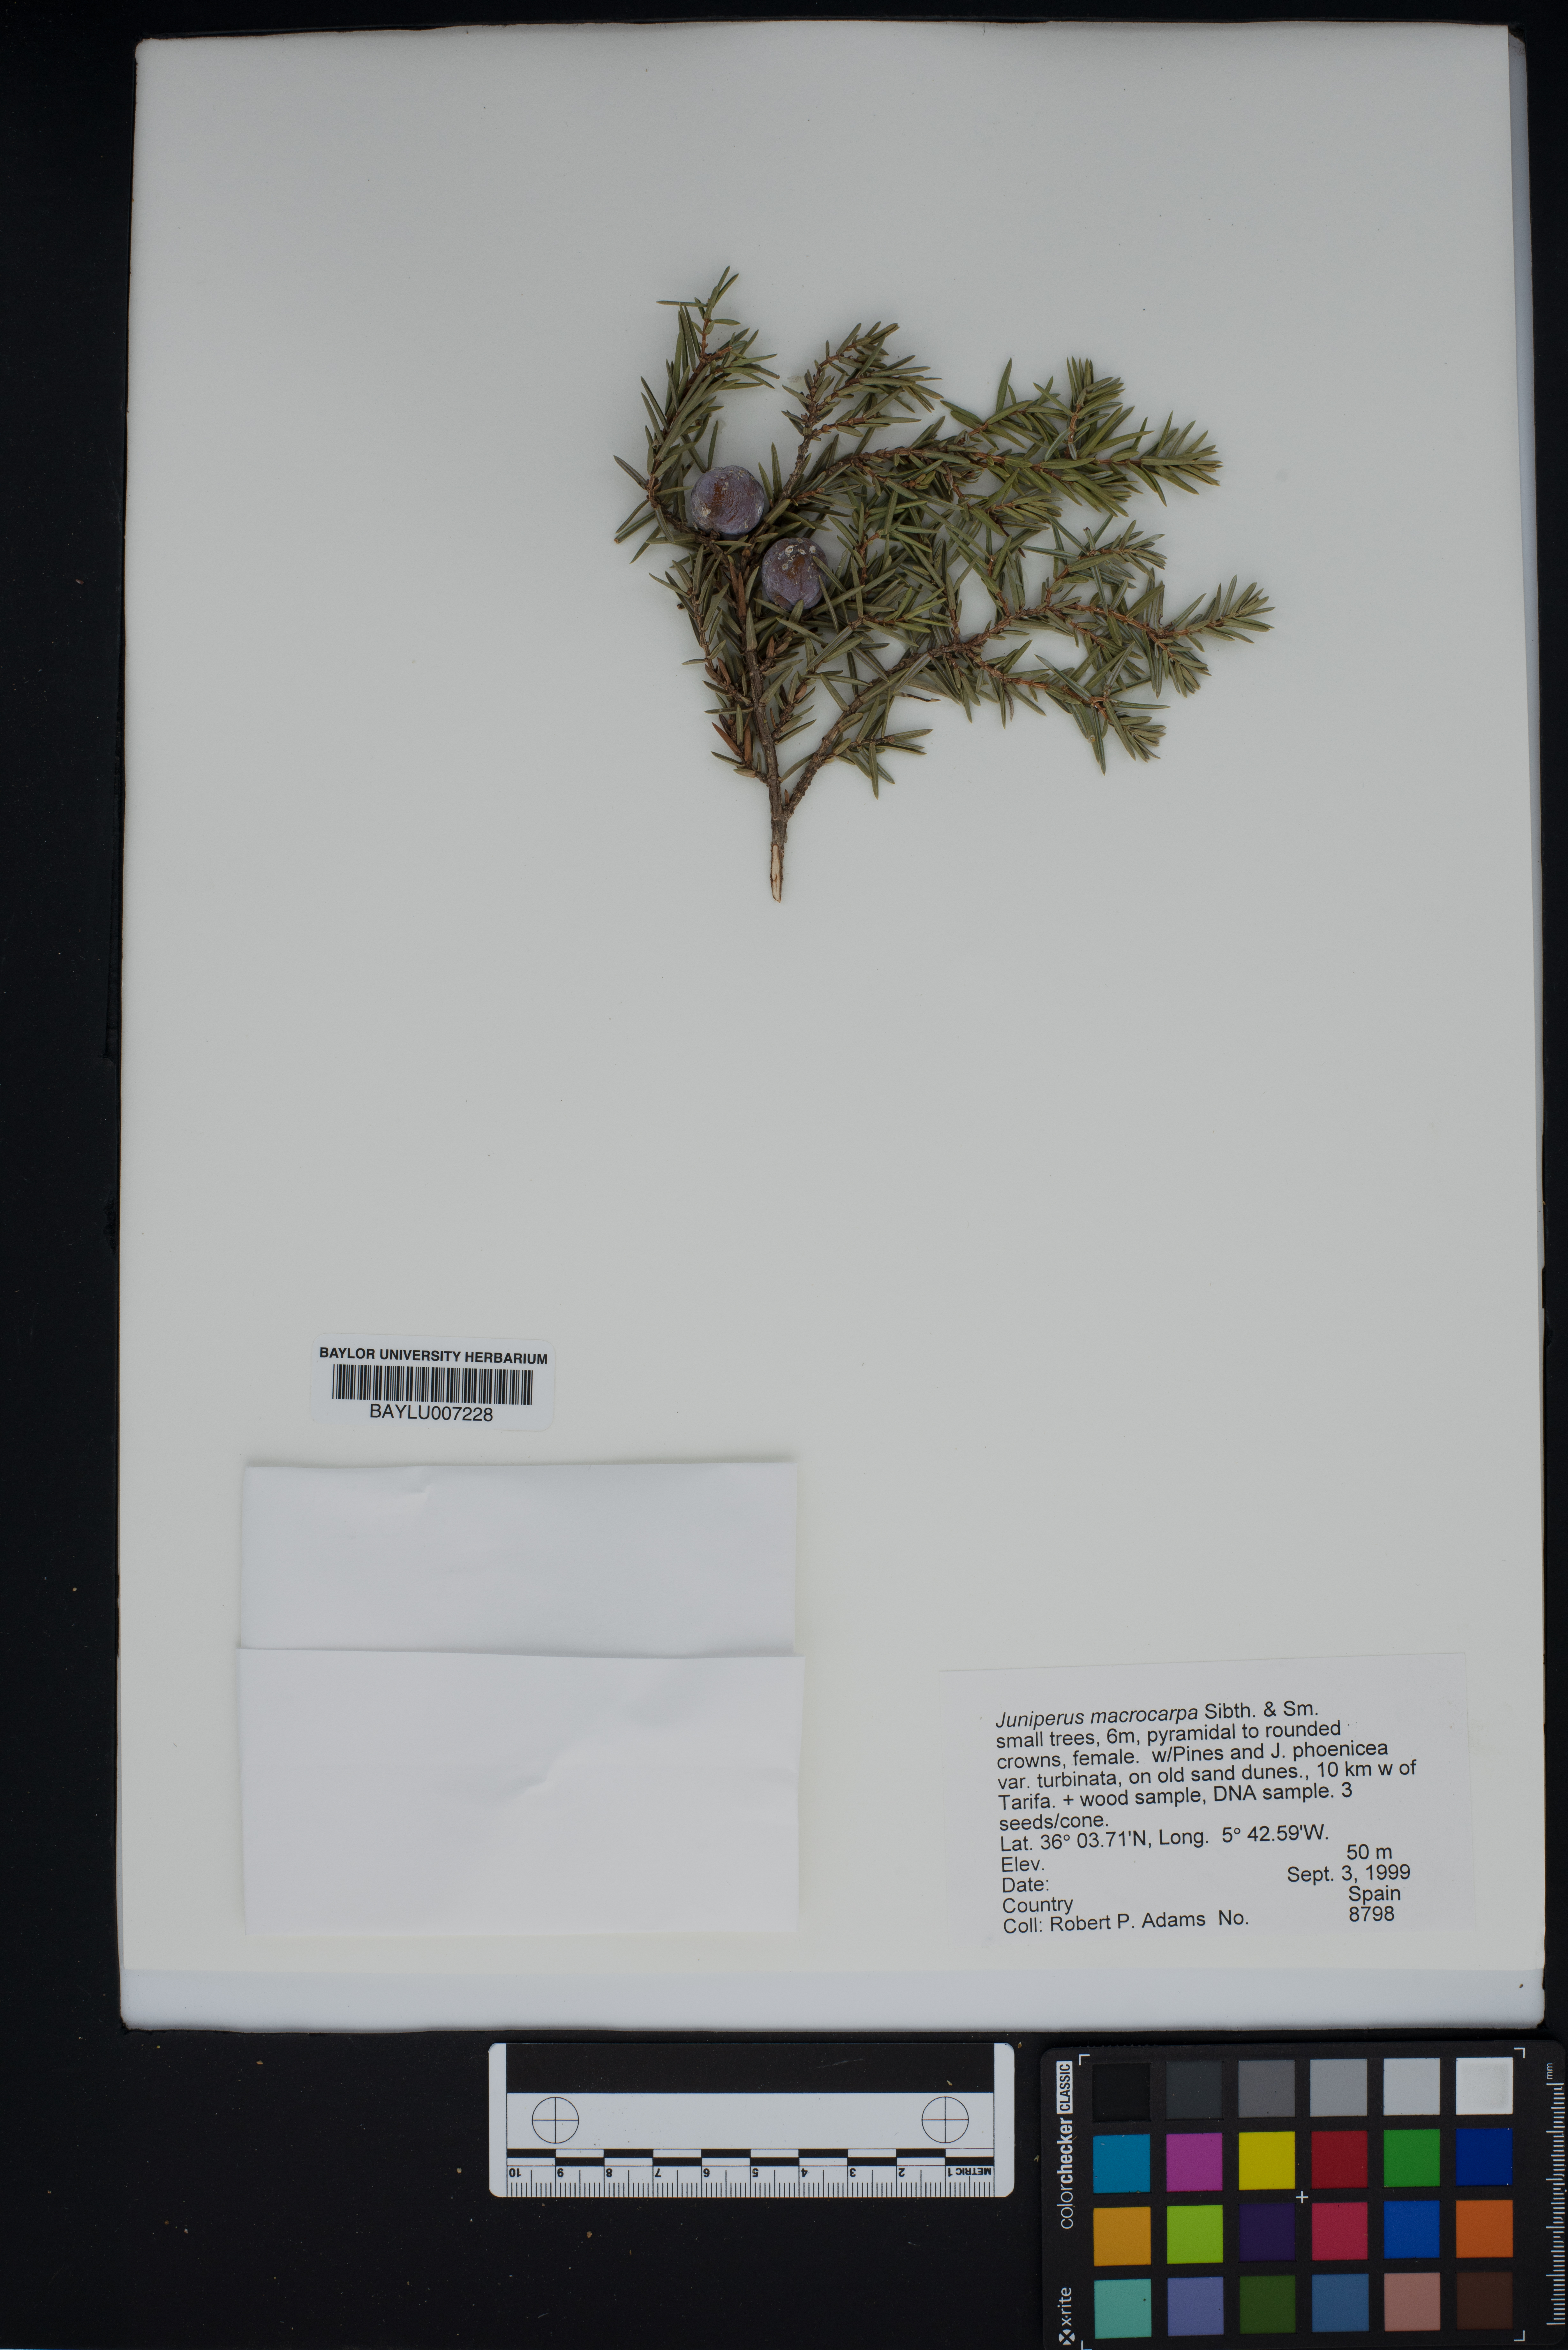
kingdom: Plantae
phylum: Tracheophyta
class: Pinopsida
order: Pinales
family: Cupressaceae
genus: Juniperus
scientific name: Juniperus oxycedrus
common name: Prickly juniper
